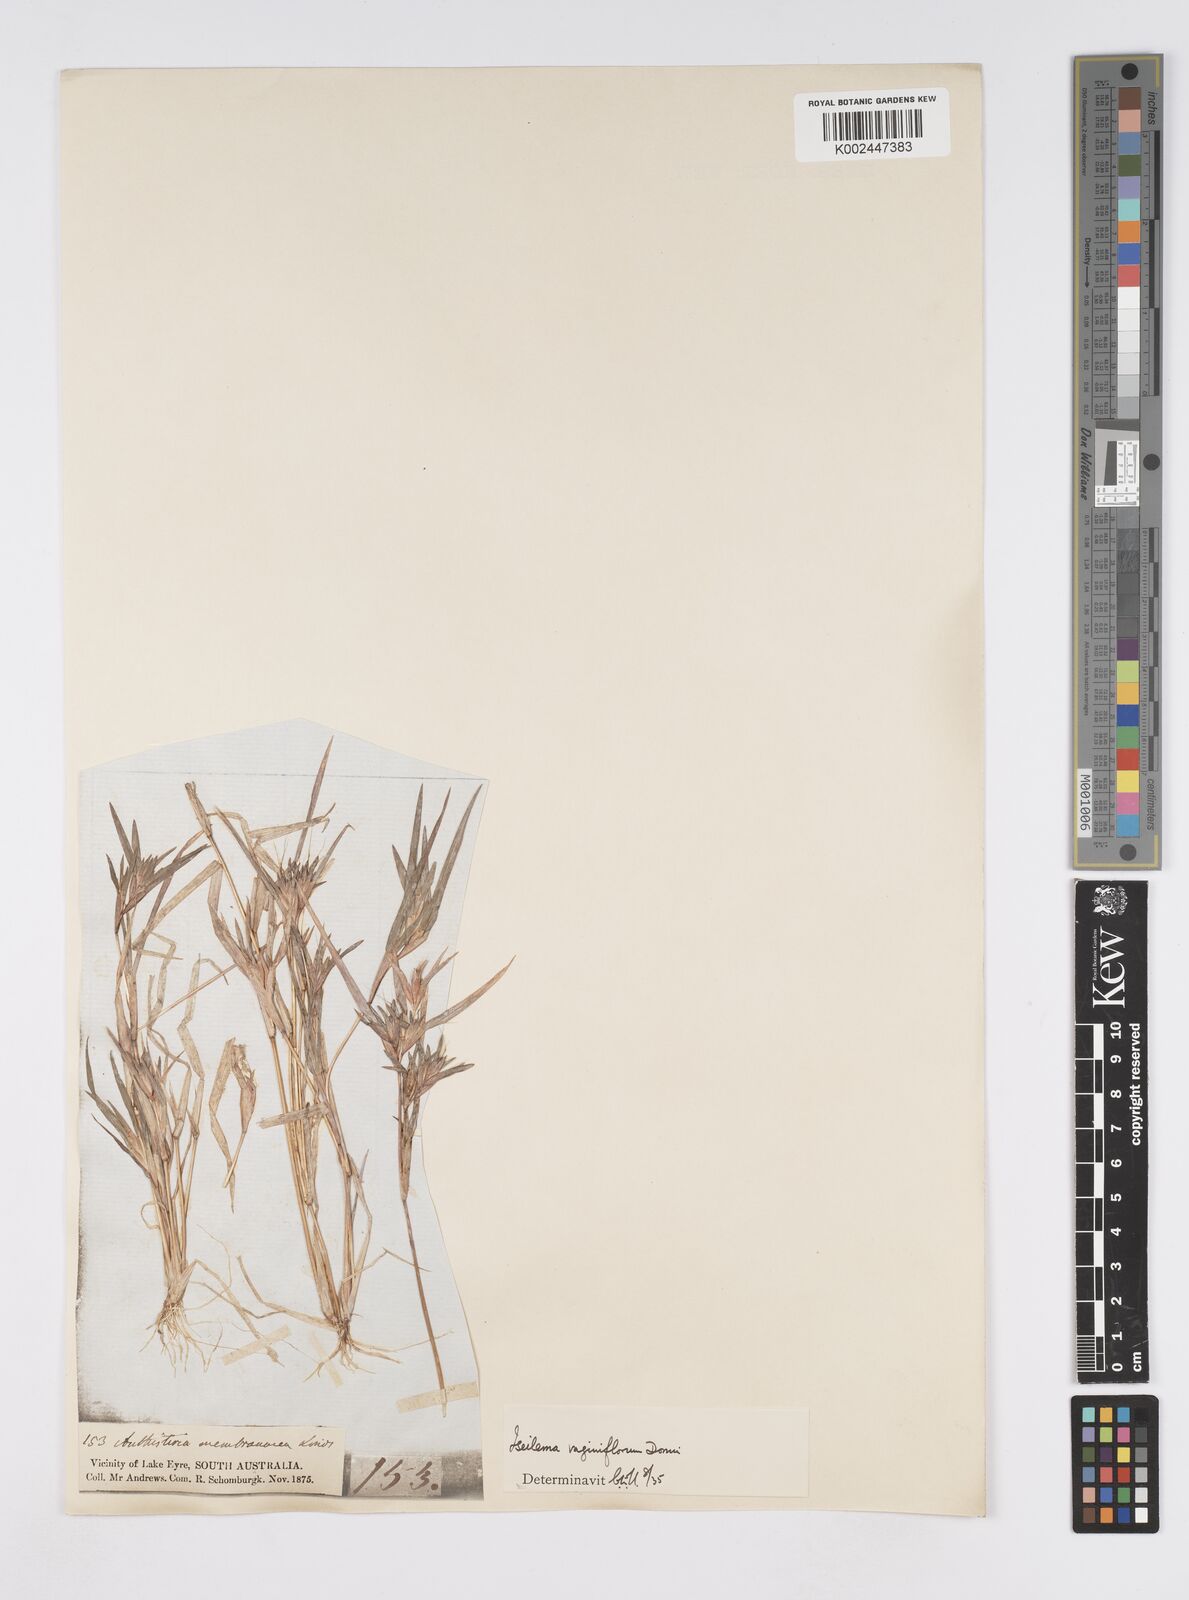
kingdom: Plantae
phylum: Tracheophyta
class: Liliopsida
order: Poales
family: Poaceae
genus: Iseilema
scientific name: Iseilema vaginiflorum
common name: Red flinders grass
